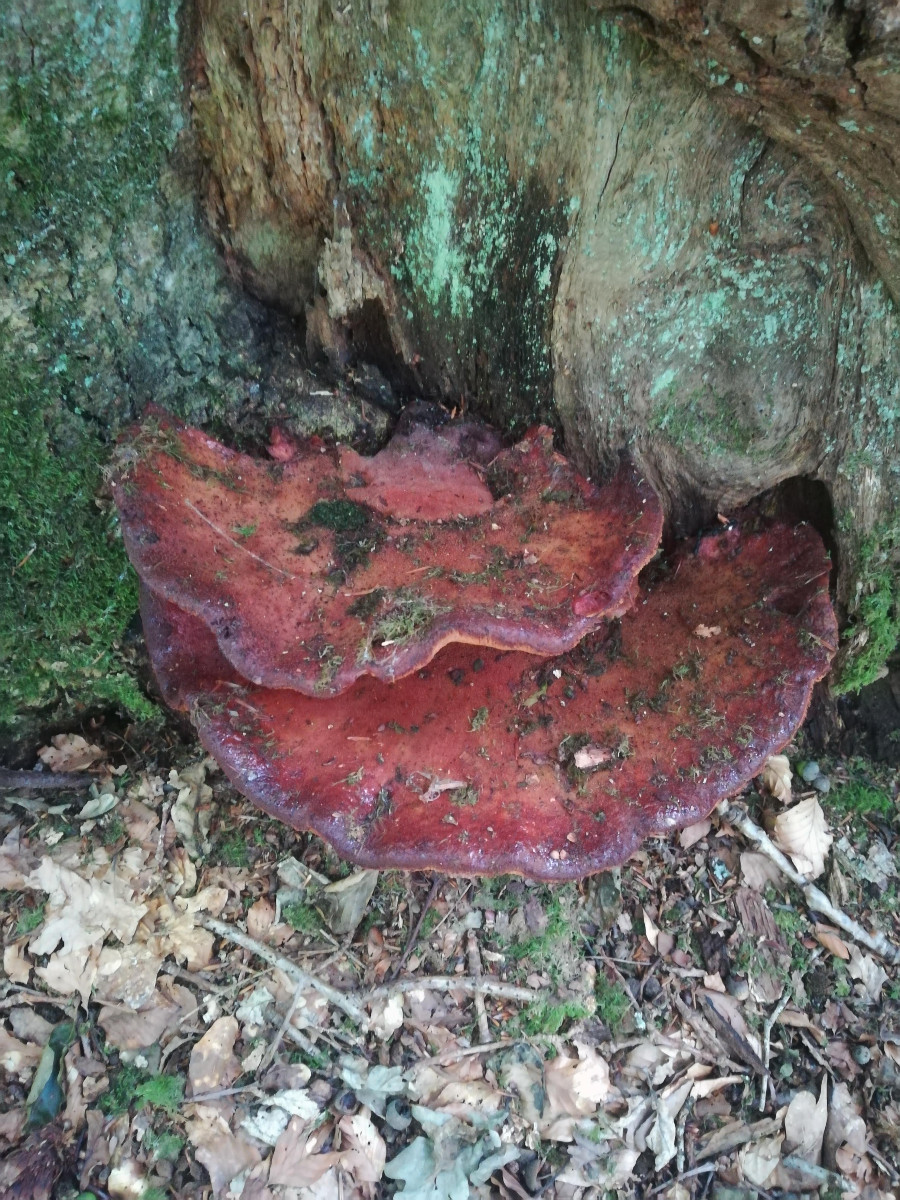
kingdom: Fungi
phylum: Basidiomycota
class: Agaricomycetes
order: Agaricales
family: Fistulinaceae
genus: Fistulina
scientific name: Fistulina hepatica
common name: oksetunge
